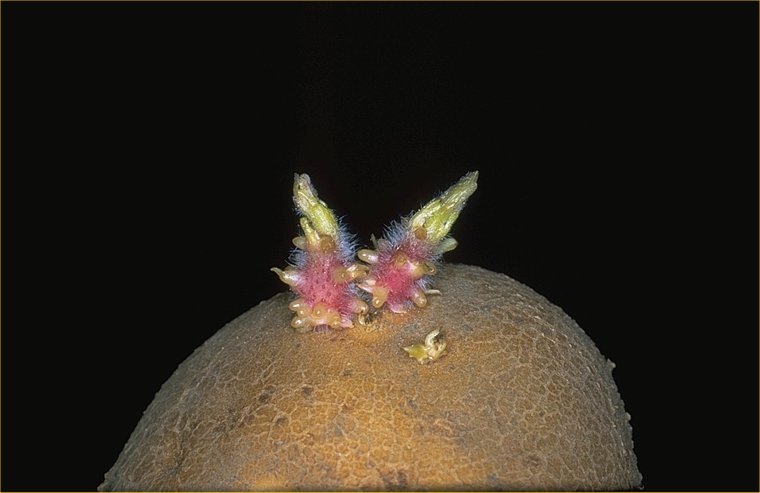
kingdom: Plantae
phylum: Tracheophyta
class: Magnoliopsida
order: Solanales
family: Solanaceae
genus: Solanum
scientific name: Solanum tuberosum
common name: Potato
